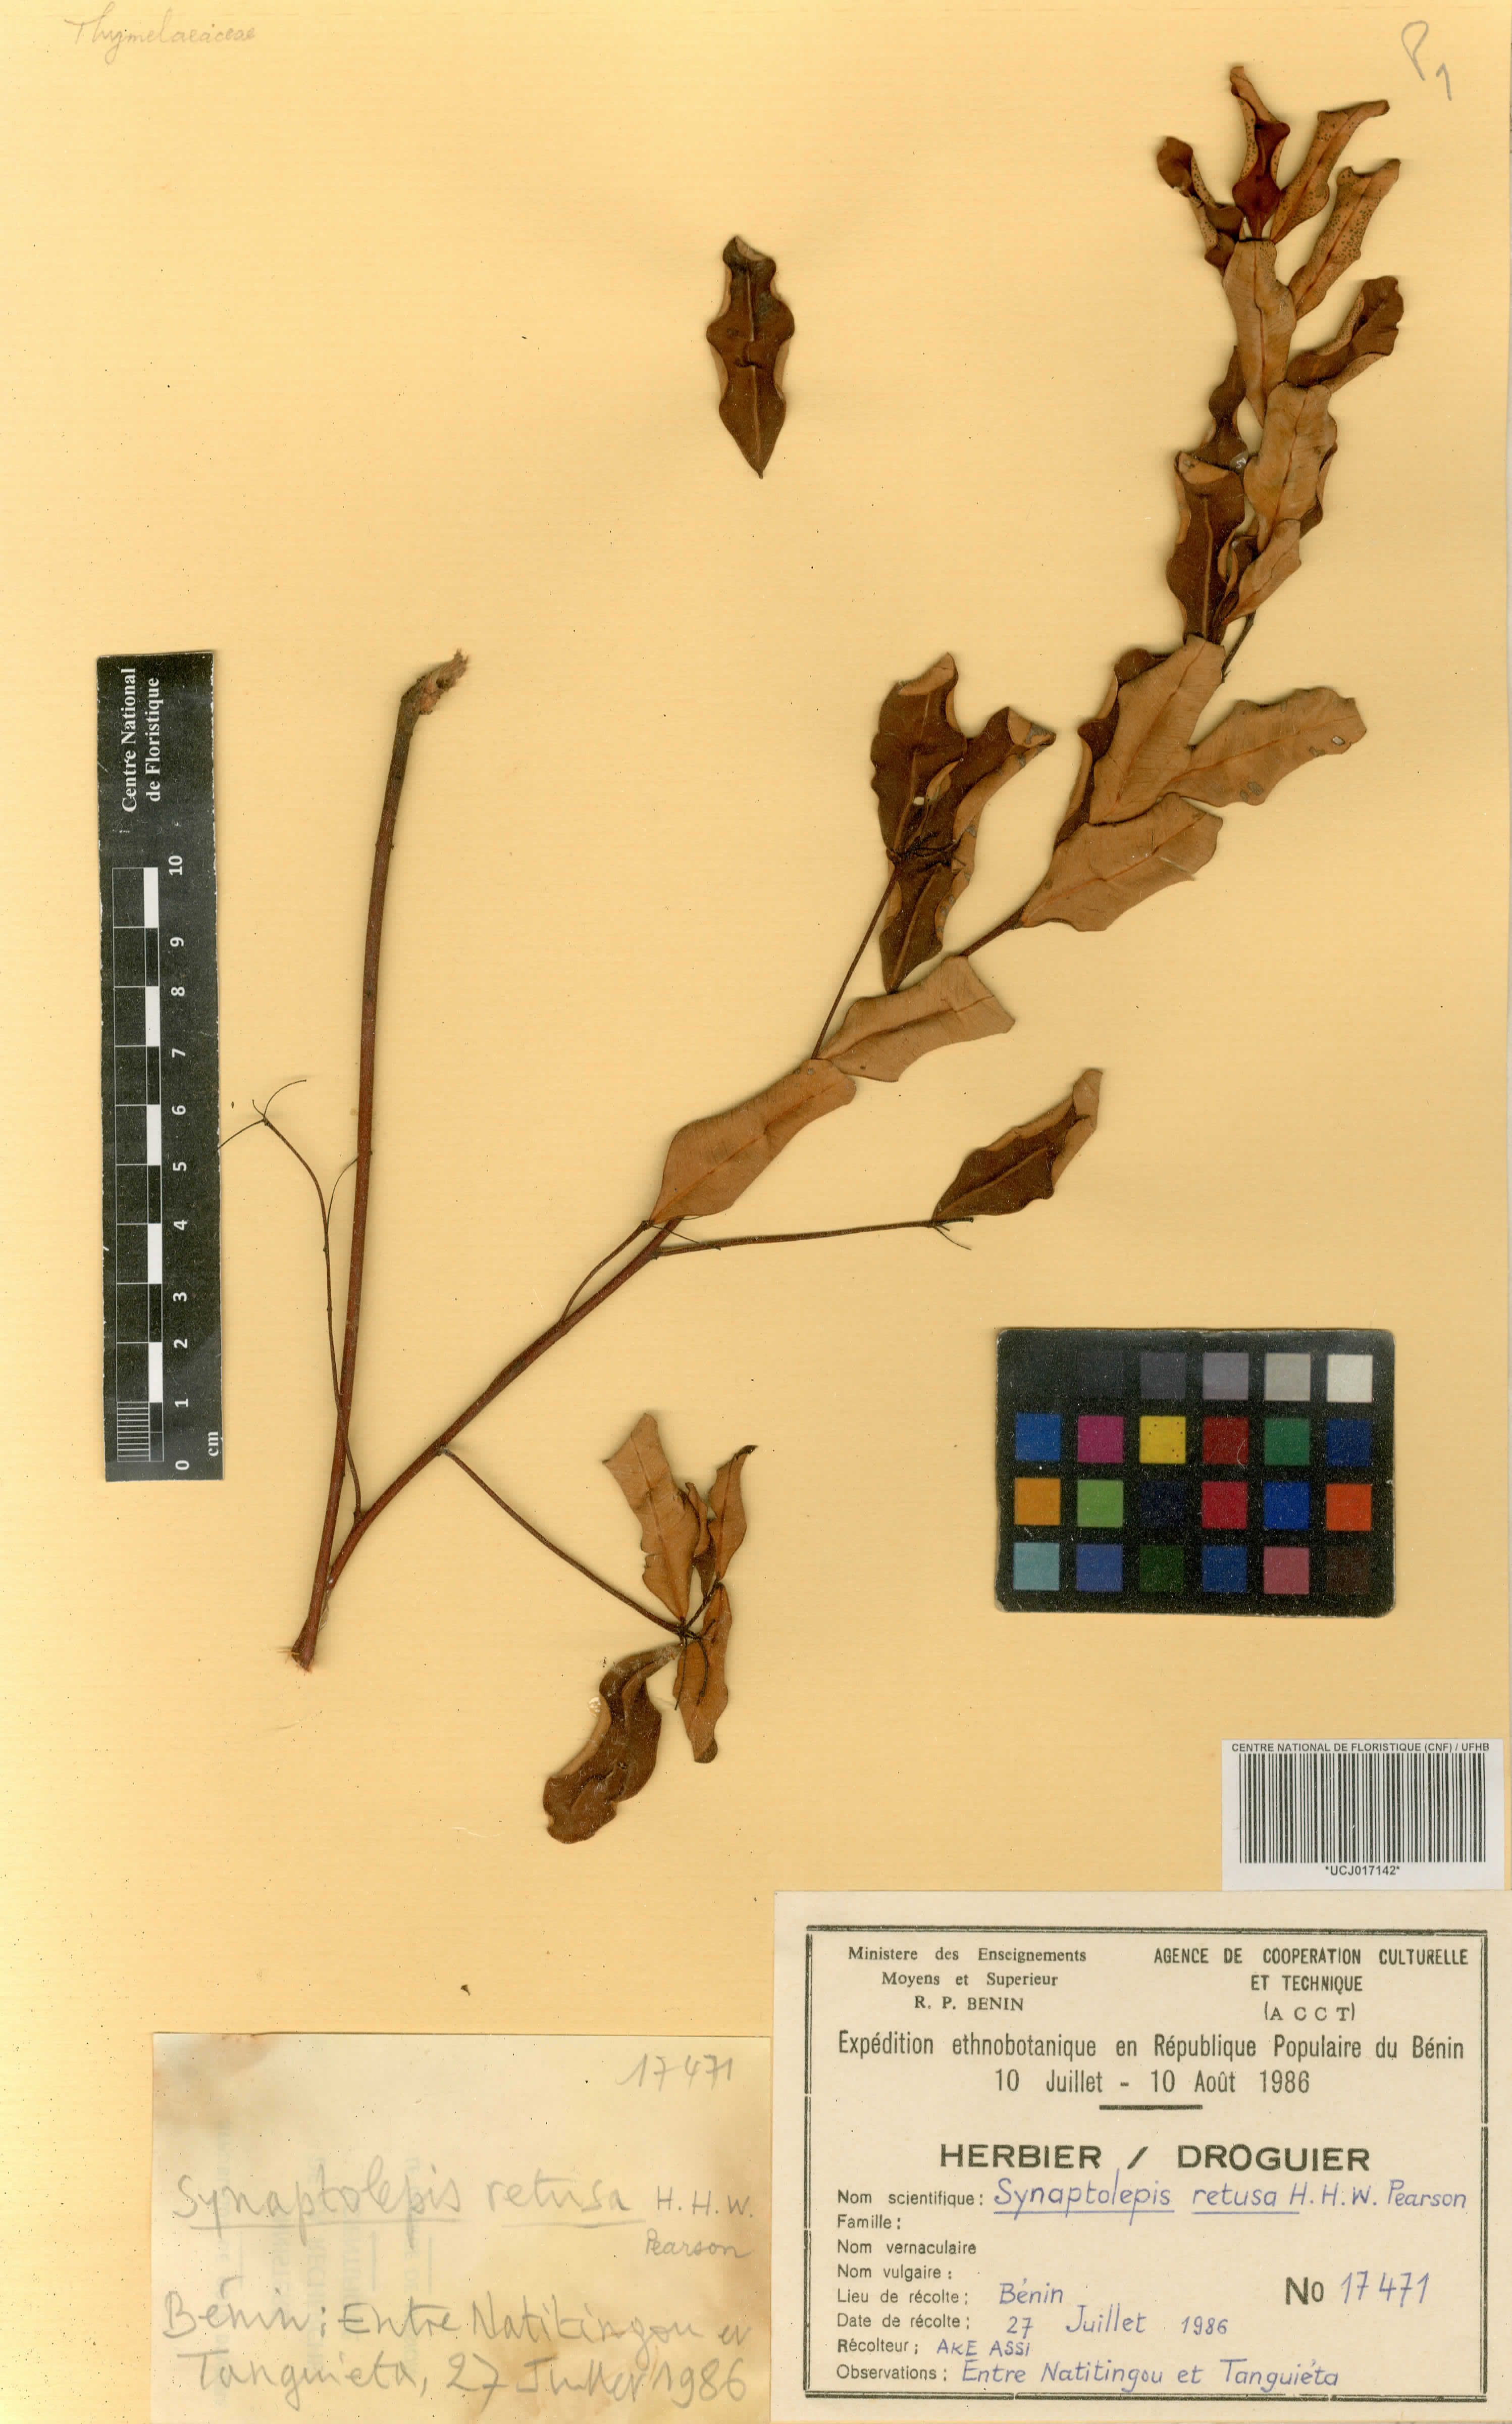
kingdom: Plantae
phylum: Tracheophyta
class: Magnoliopsida
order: Malvales
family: Thymelaeaceae
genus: Synaptolepis
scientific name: Synaptolepis retusa
